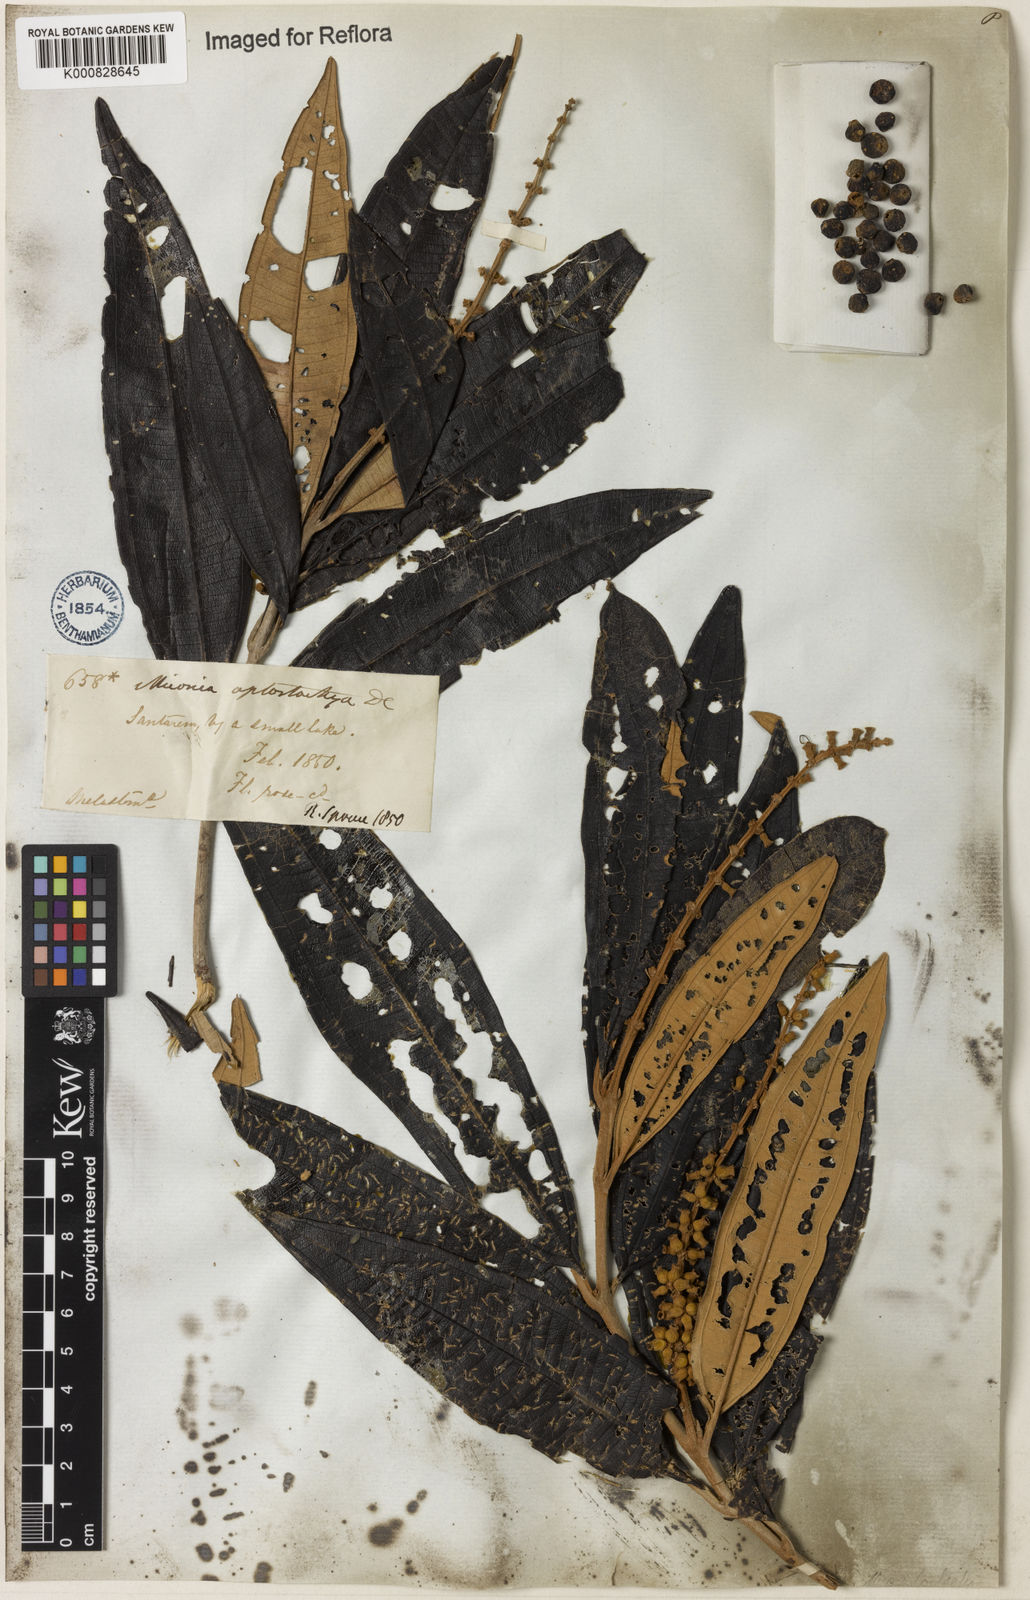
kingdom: Plantae
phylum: Tracheophyta
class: Magnoliopsida
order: Myrtales
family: Melastomataceae
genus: Miconia
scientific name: Miconia aplostachya
